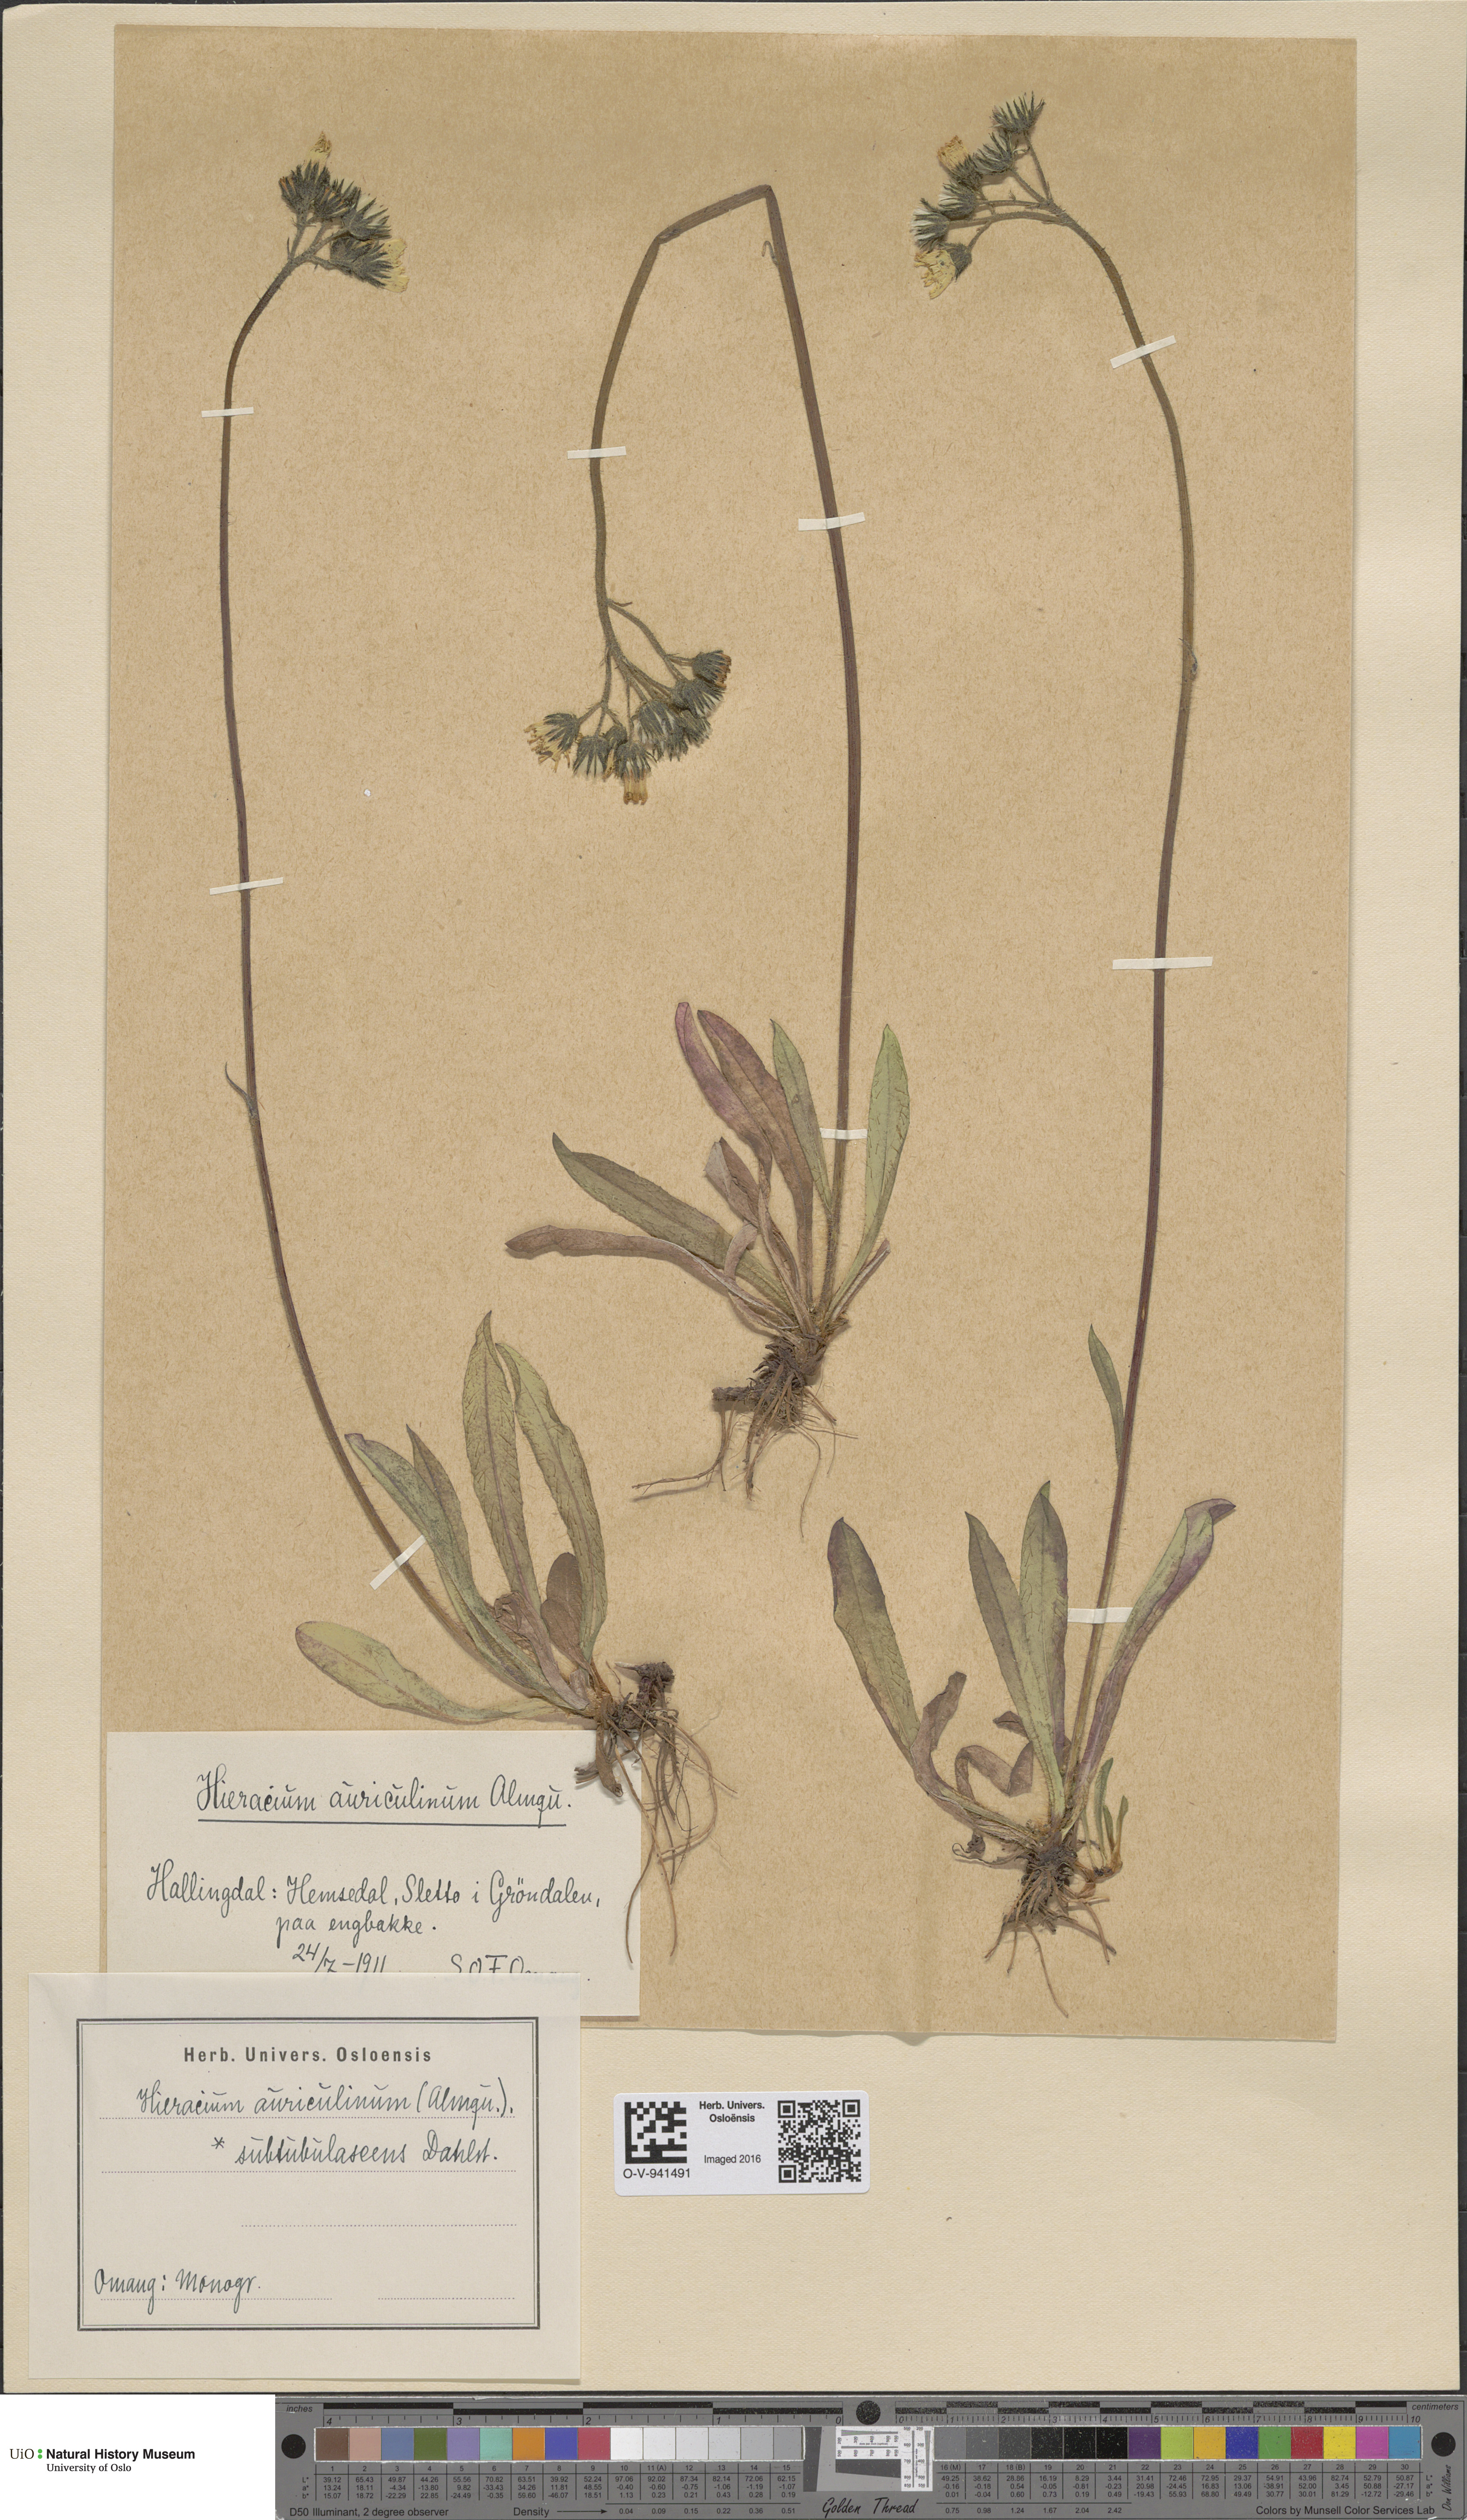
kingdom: Plantae
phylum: Tracheophyta
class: Magnoliopsida
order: Asterales
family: Asteraceae
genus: Pilosella
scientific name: Pilosella dubia
